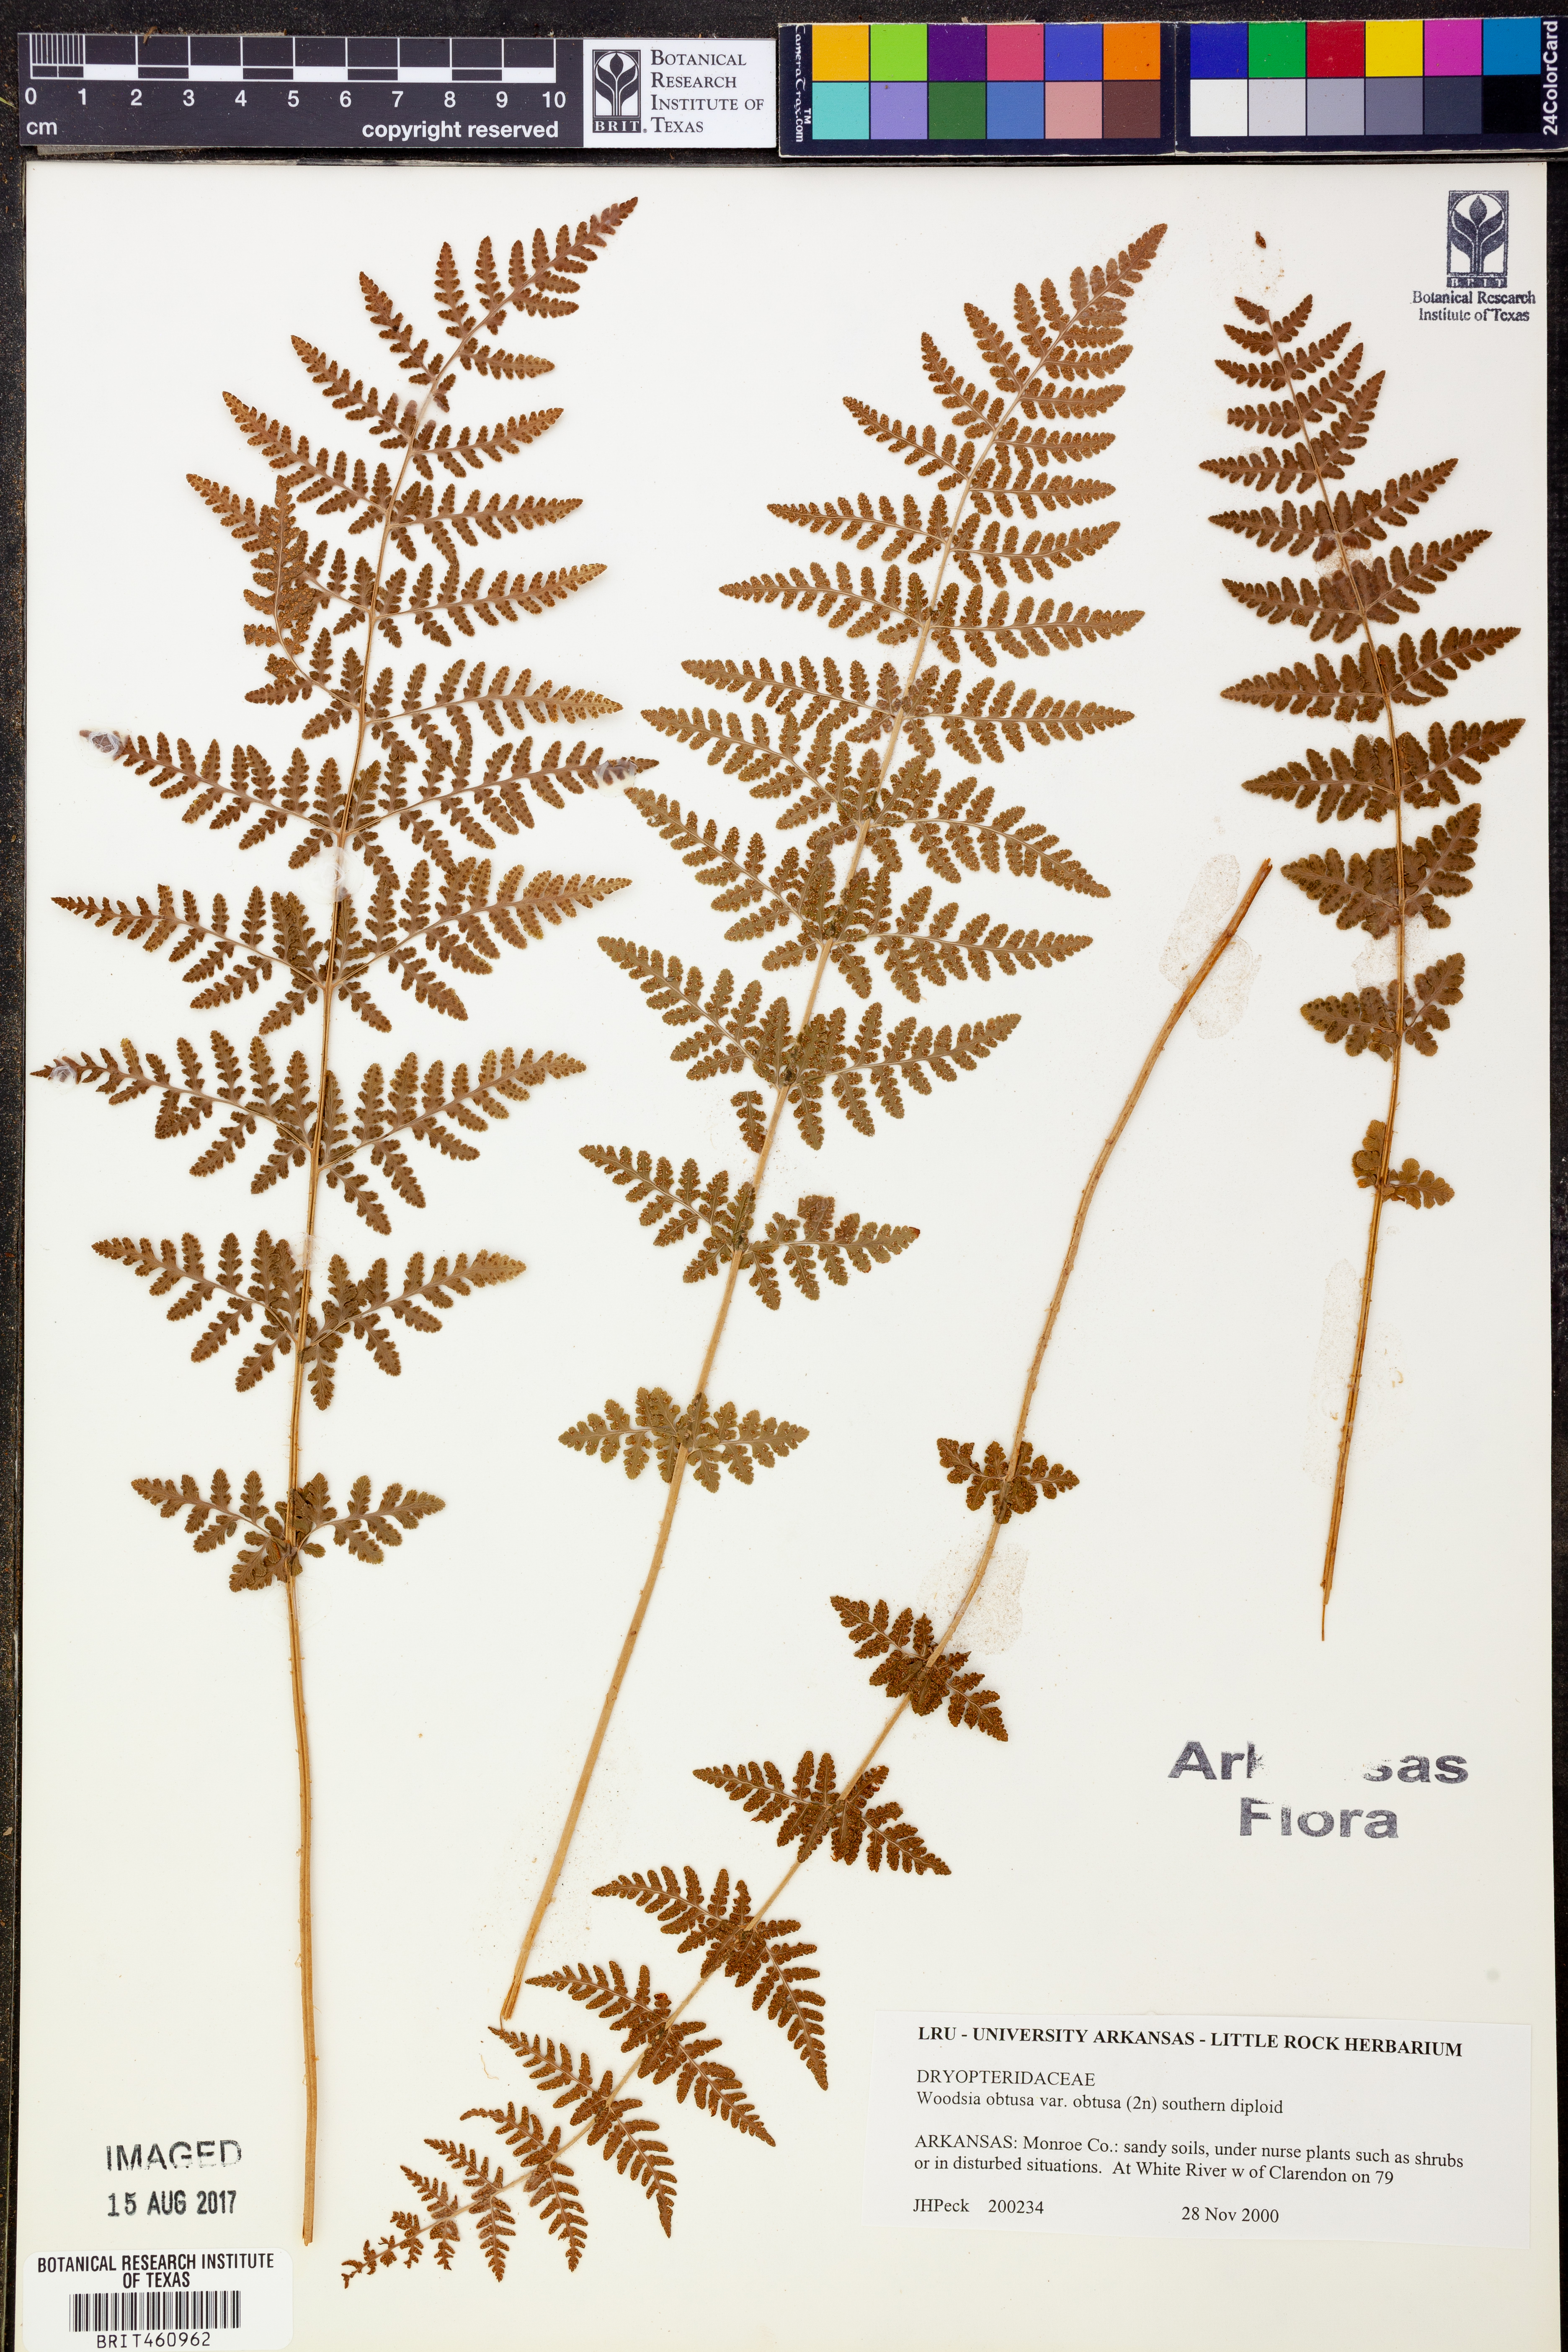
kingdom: Plantae
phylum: Tracheophyta
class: Polypodiopsida
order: Polypodiales
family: Woodsiaceae
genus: Physematium
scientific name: Physematium obtusum
